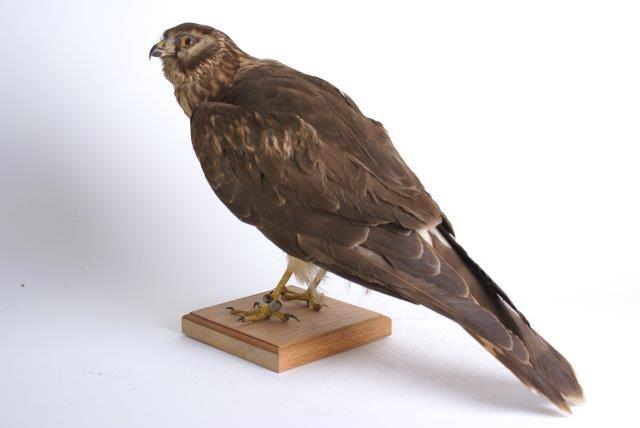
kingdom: Animalia
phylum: Chordata
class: Aves
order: Accipitriformes
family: Accipitridae
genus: Circus
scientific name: Circus cyaneus
